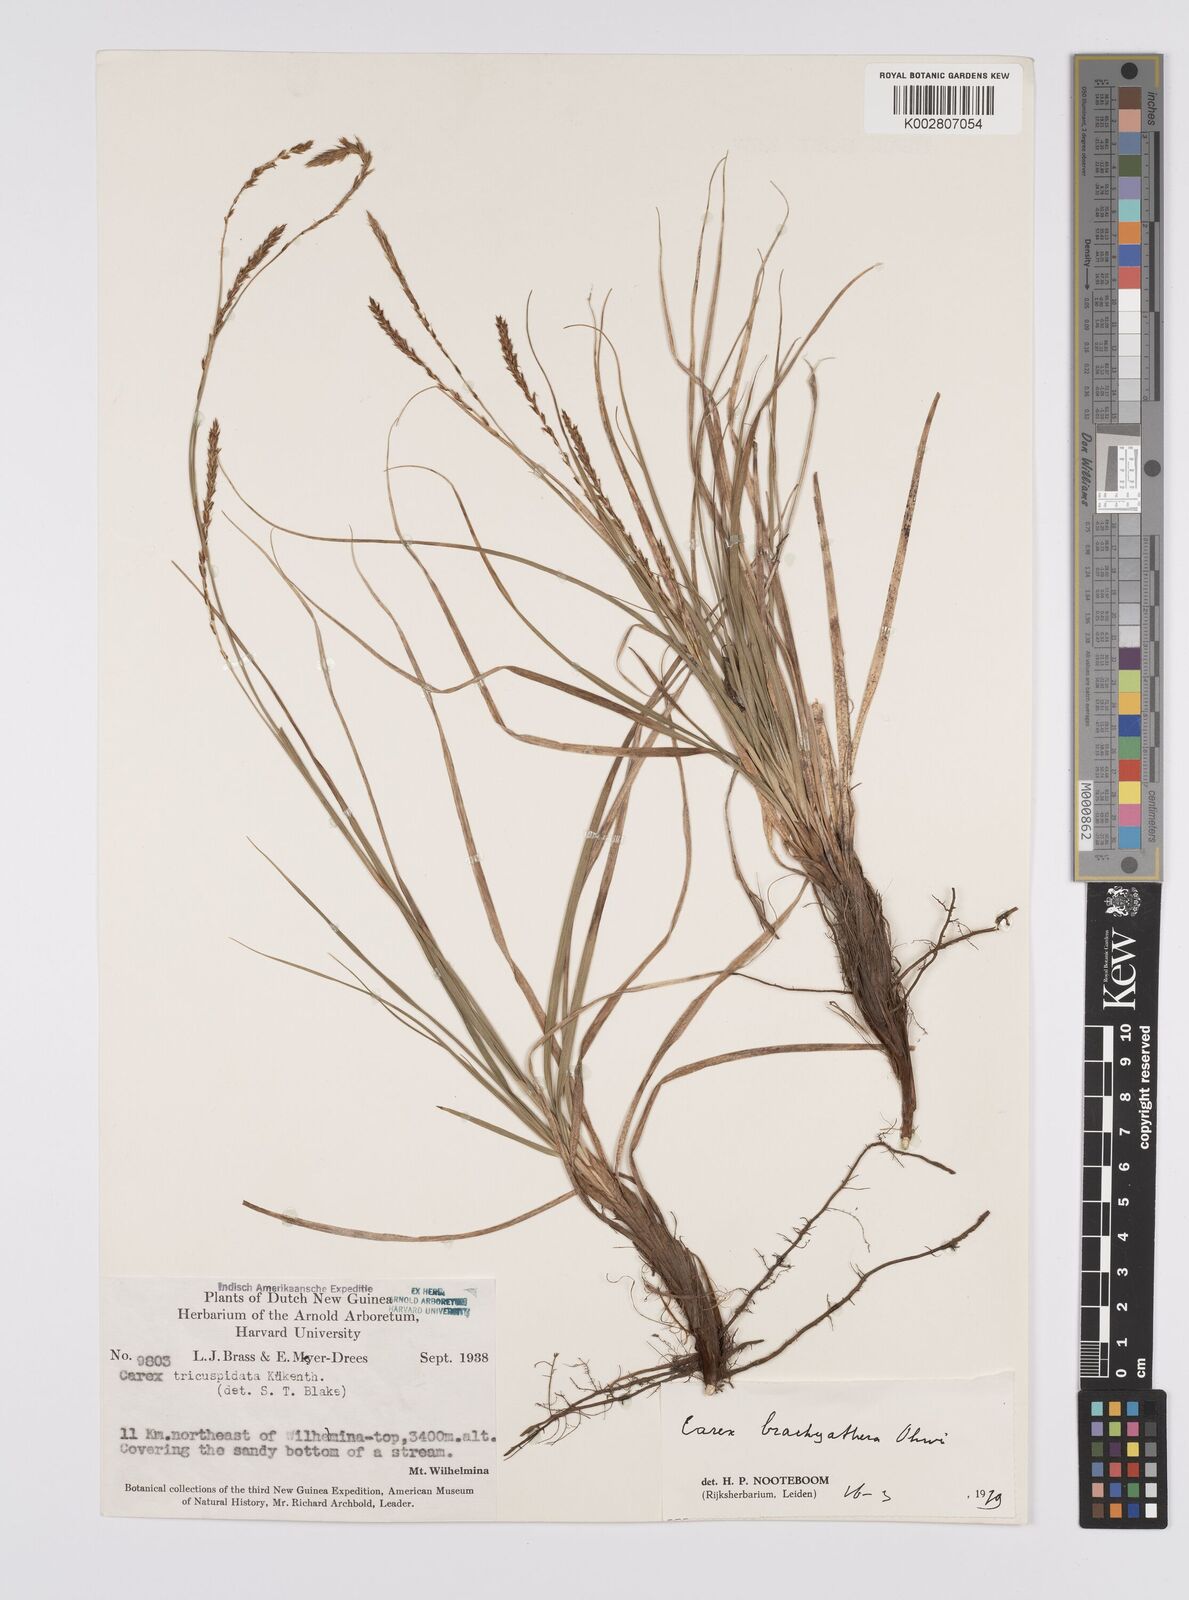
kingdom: Plantae
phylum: Tracheophyta
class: Liliopsida
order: Poales
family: Cyperaceae
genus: Carex
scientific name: Carex brachyanthera
